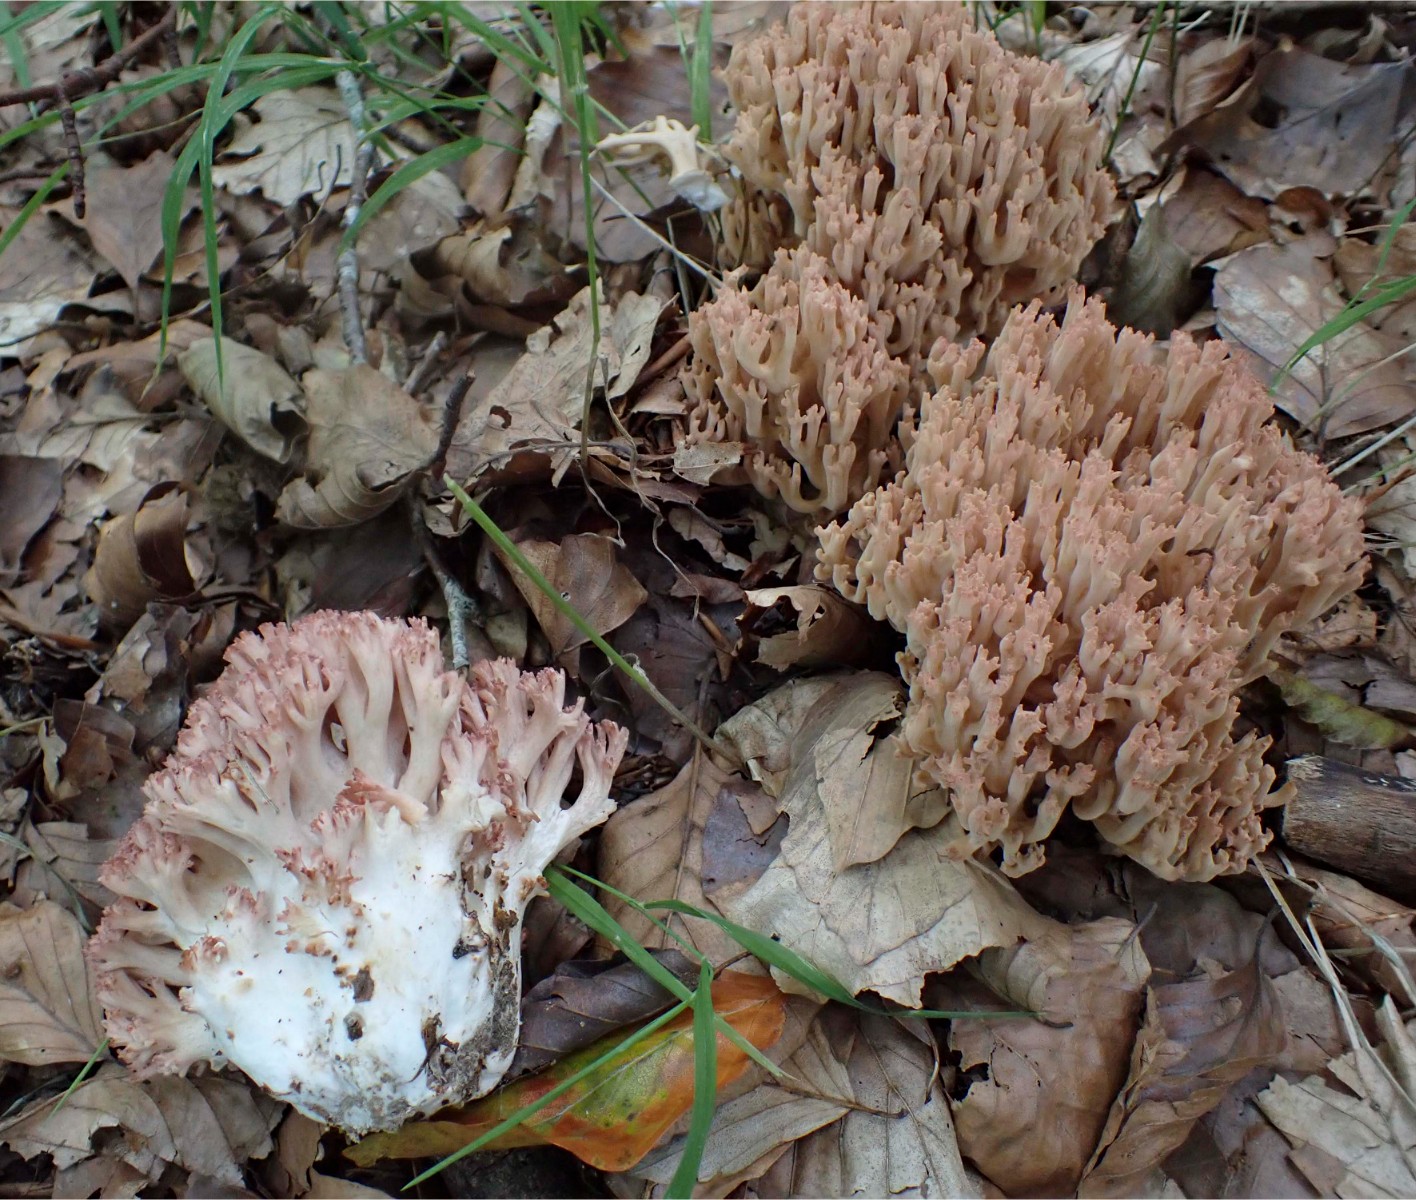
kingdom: Fungi
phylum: Basidiomycota
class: Agaricomycetes
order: Gomphales
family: Gomphaceae
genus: Ramaria
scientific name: Ramaria botrytis
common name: drue-koralsvamp
